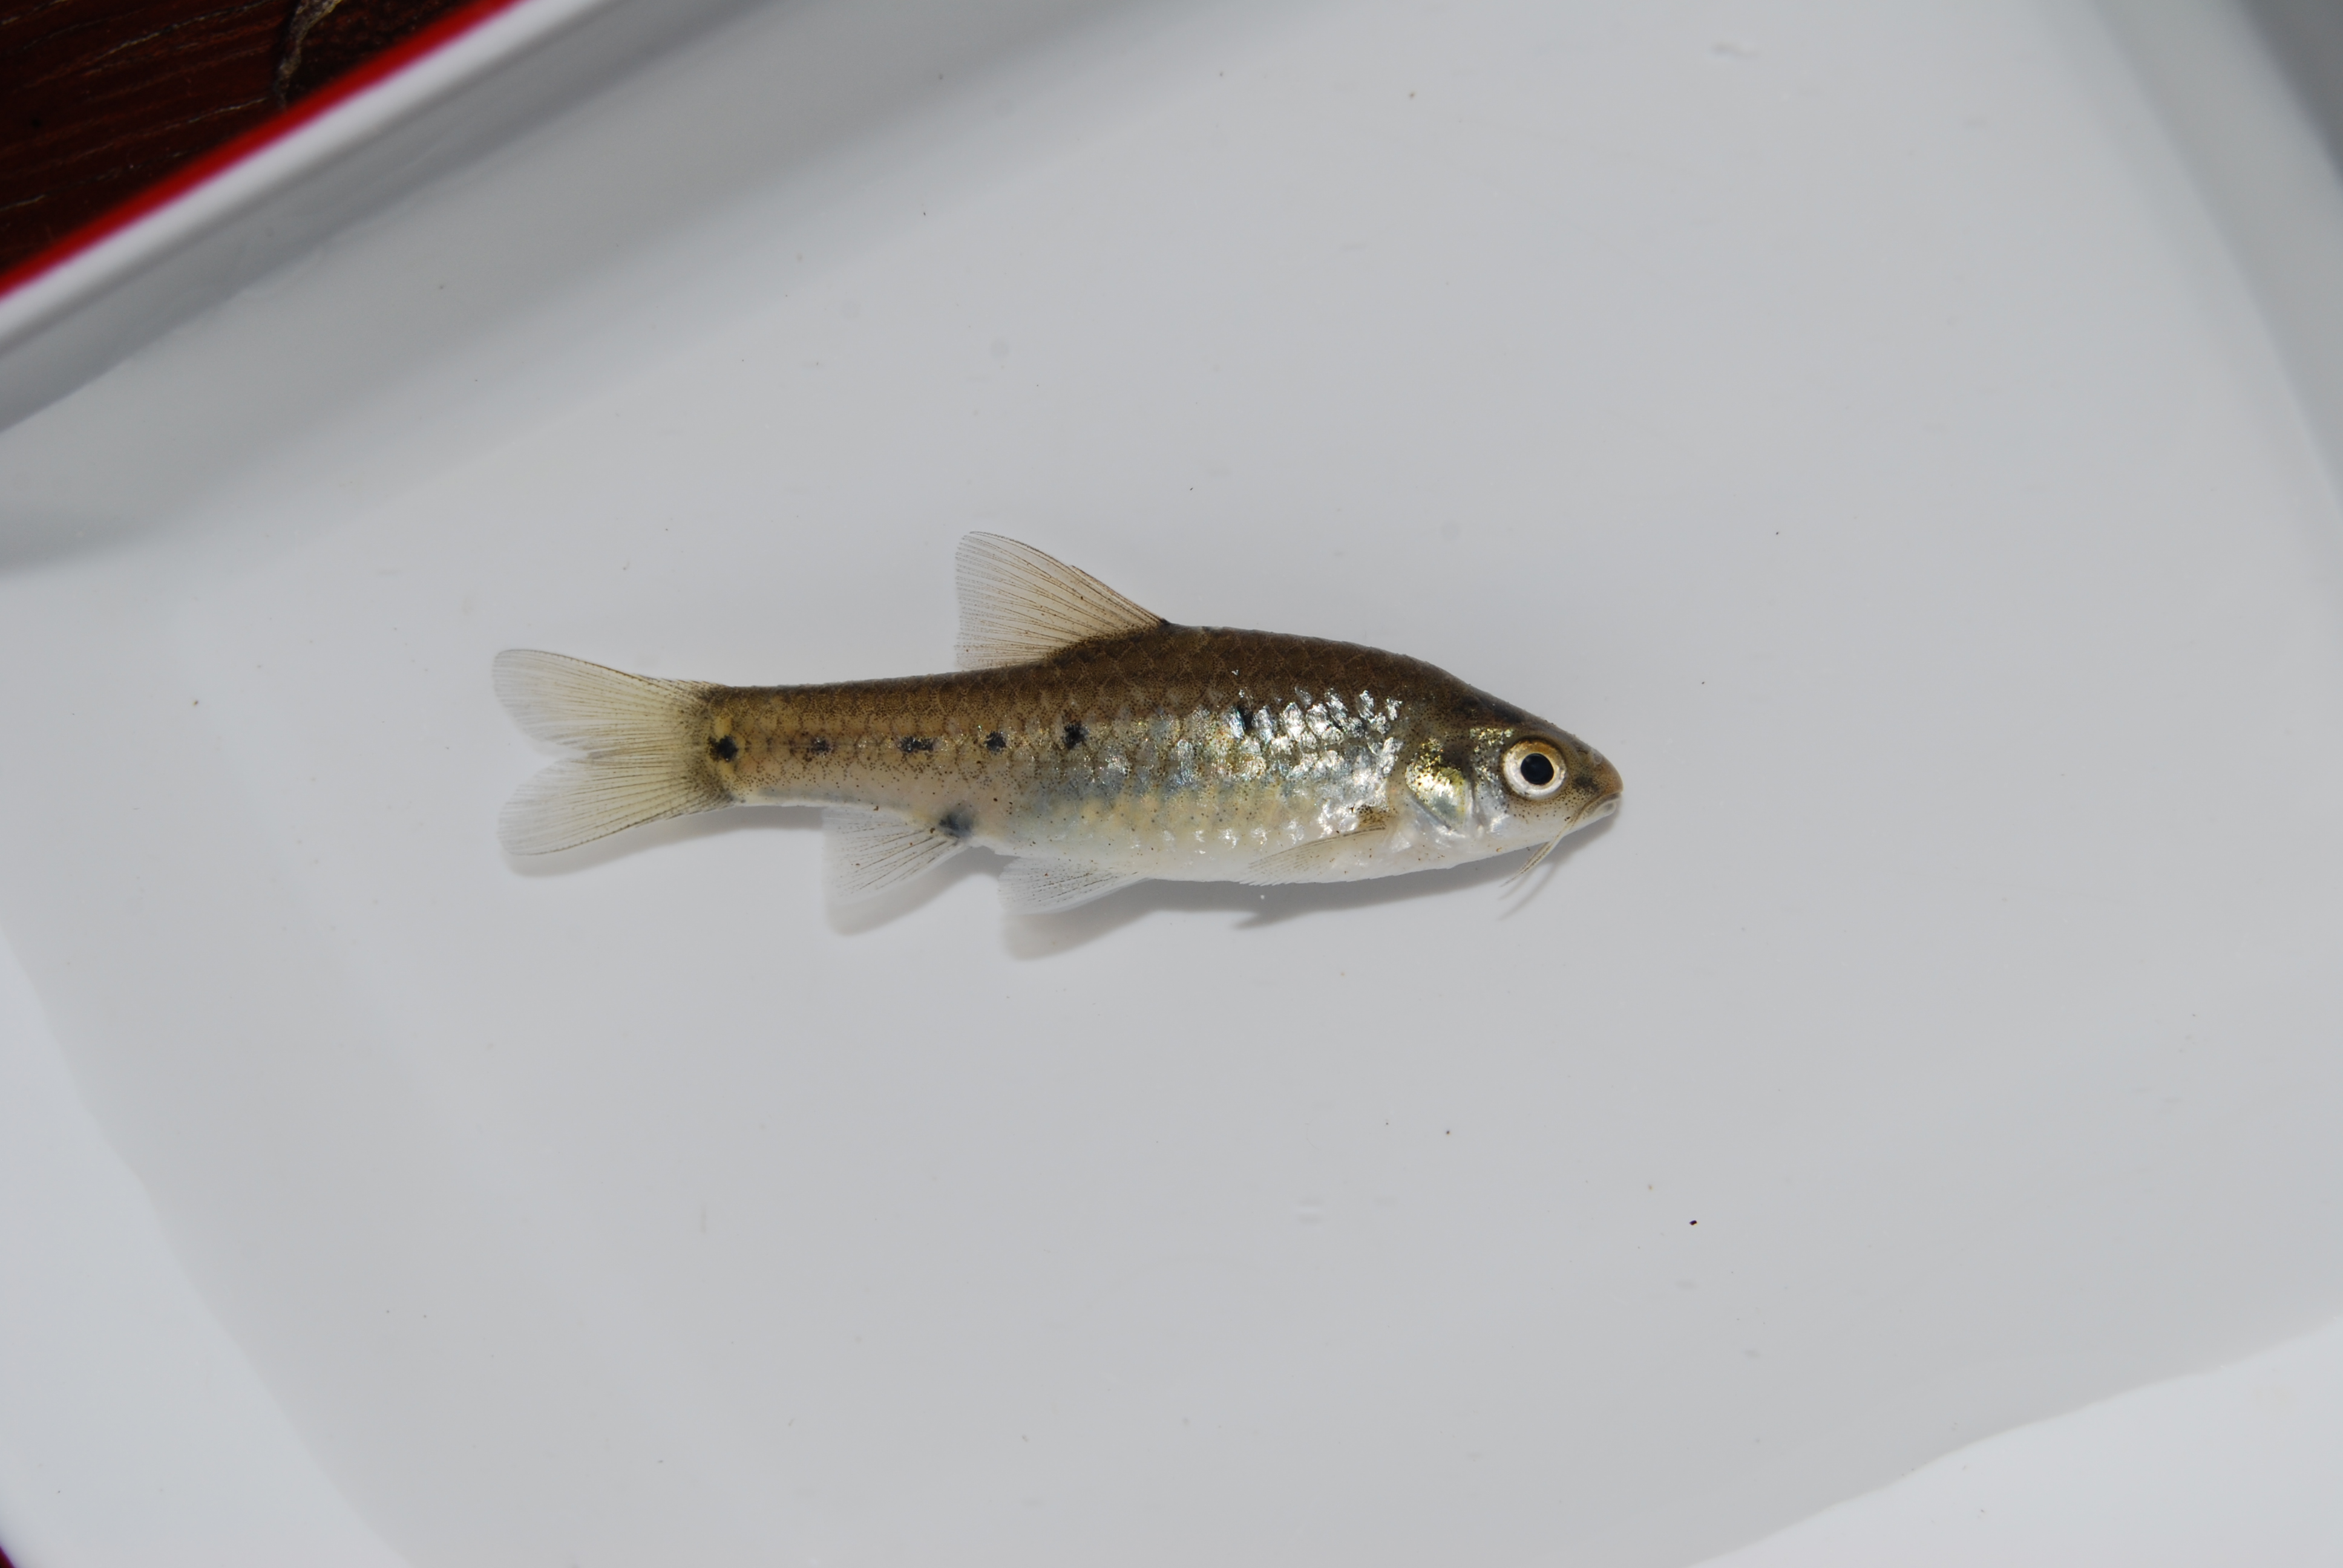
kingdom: Animalia
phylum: Chordata
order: Cypriniformes
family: Cyprinidae
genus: Enteromius
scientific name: Enteromius neefi
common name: Sidespot barb
